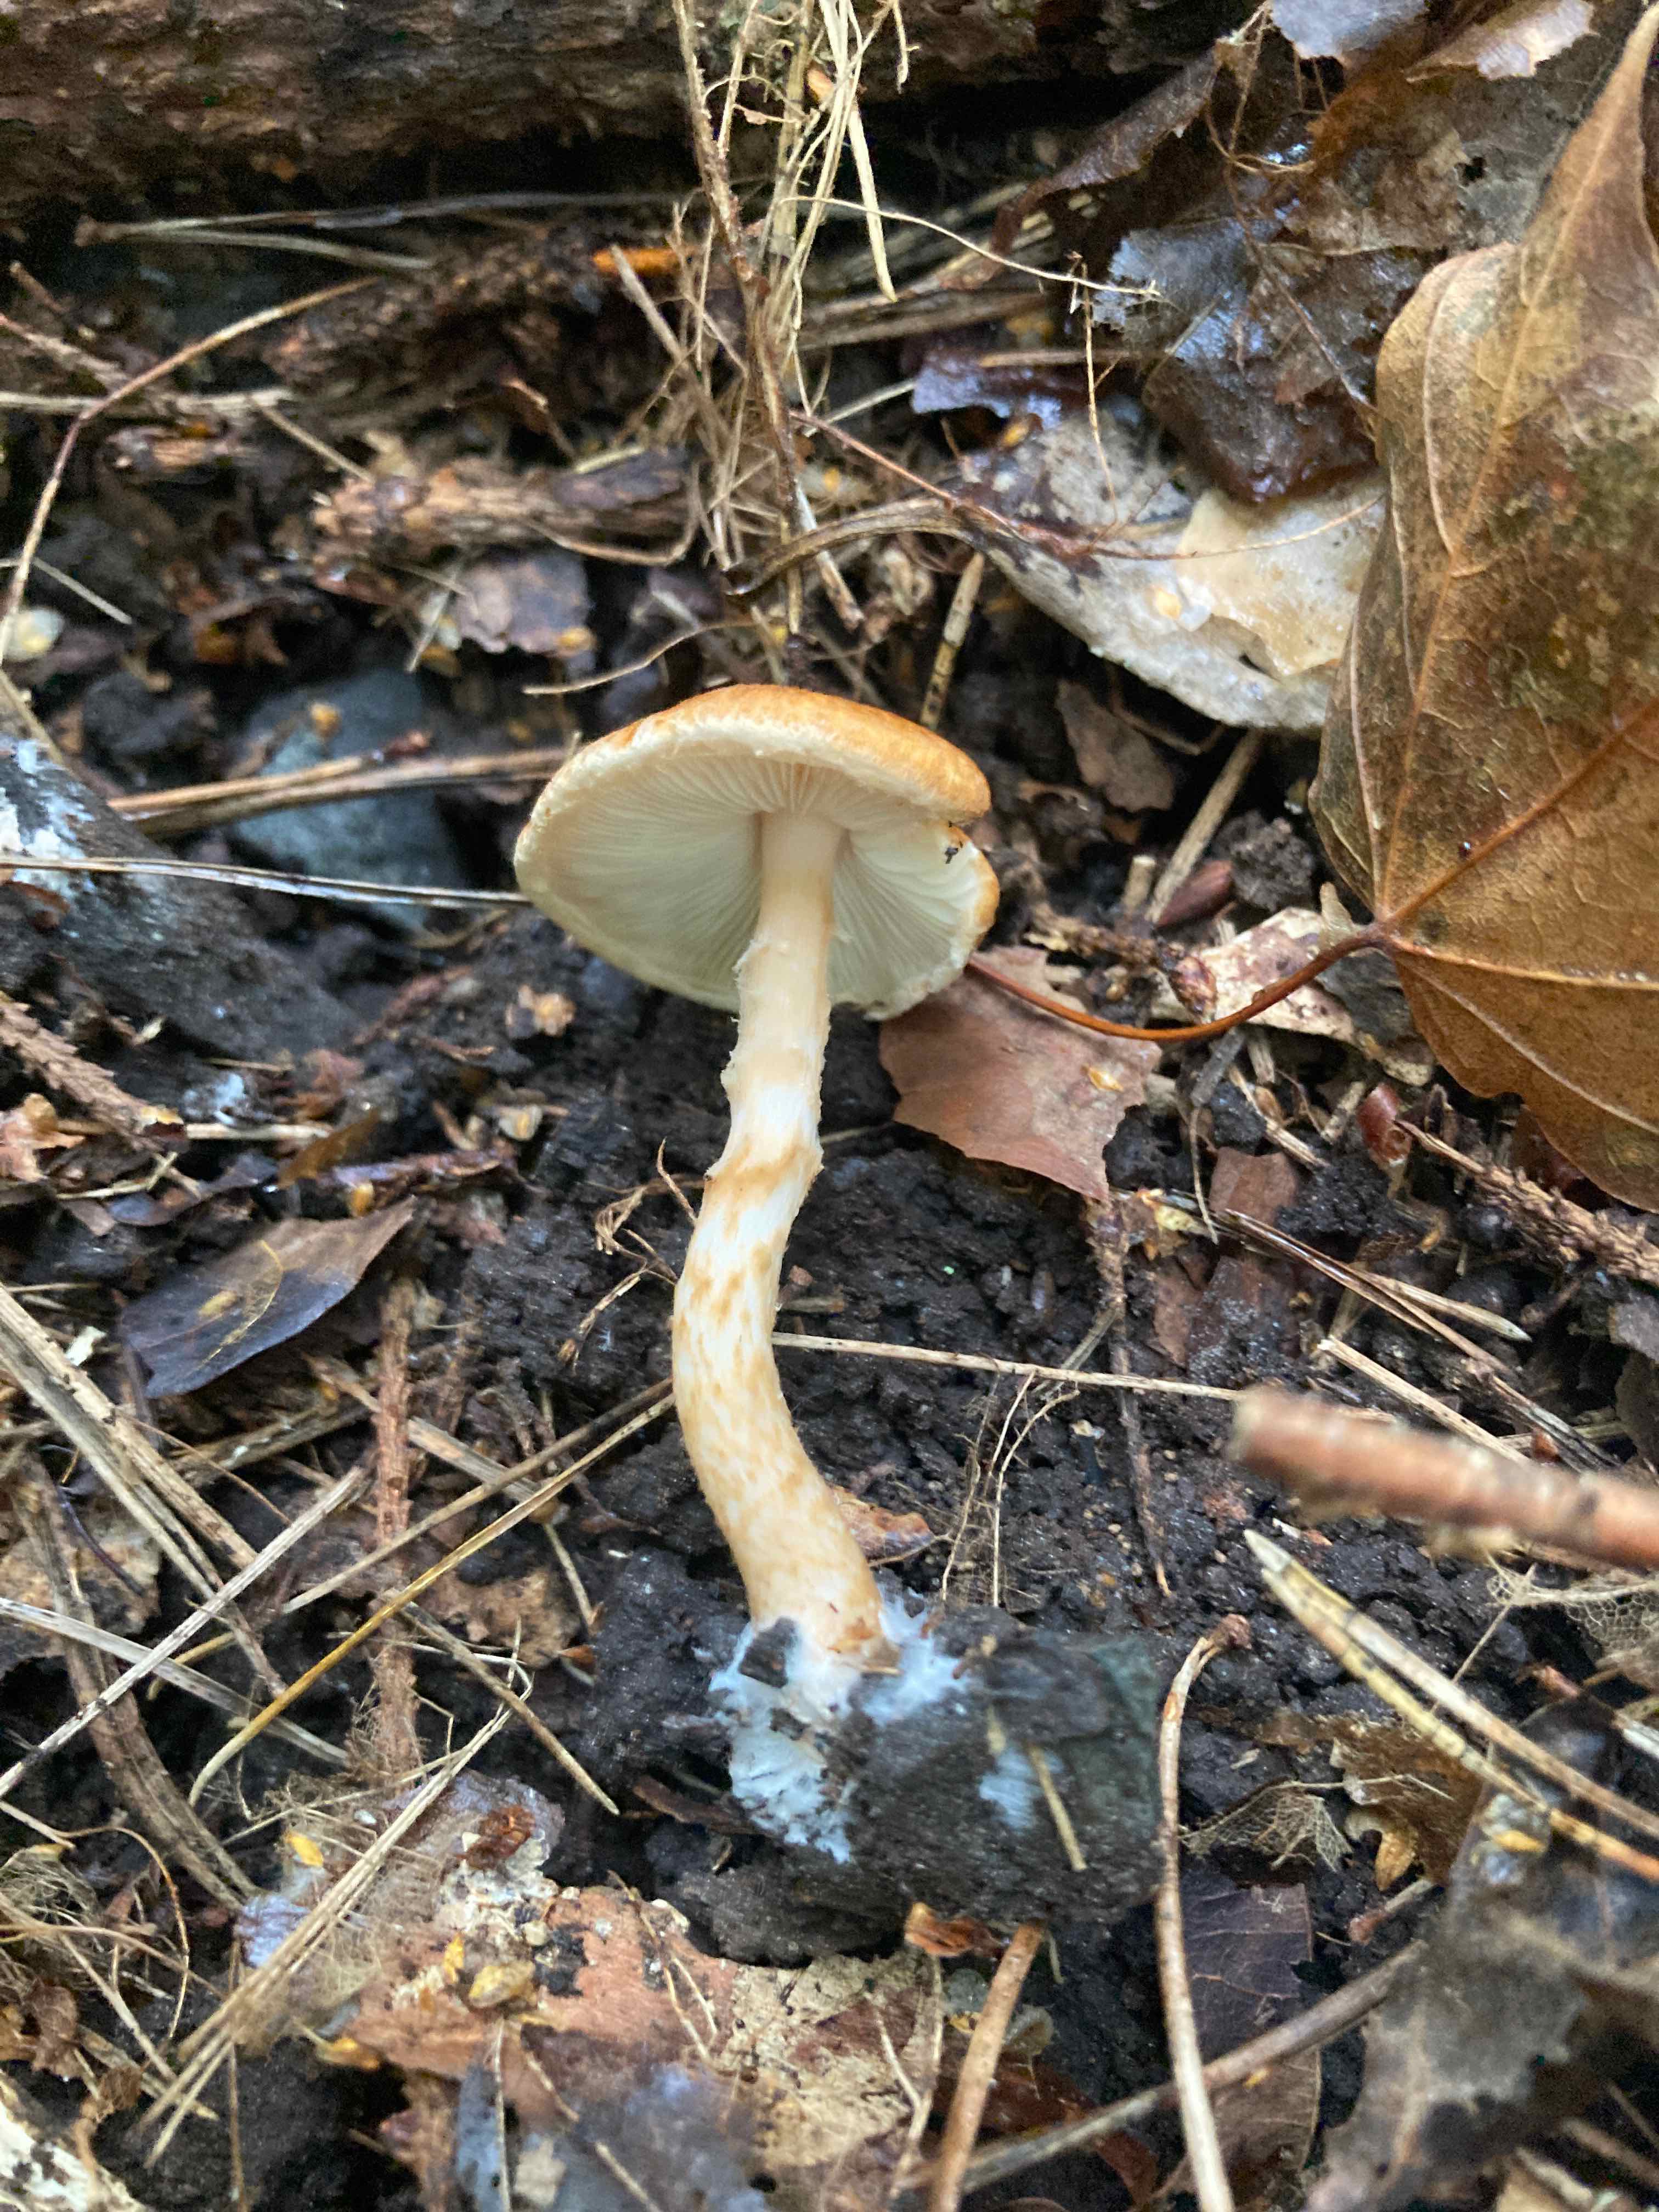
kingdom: Fungi
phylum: Basidiomycota
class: Agaricomycetes
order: Agaricales
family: Agaricaceae
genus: Leucocoprinus
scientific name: Leucocoprinus straminellus
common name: rustbrun parasolhat
